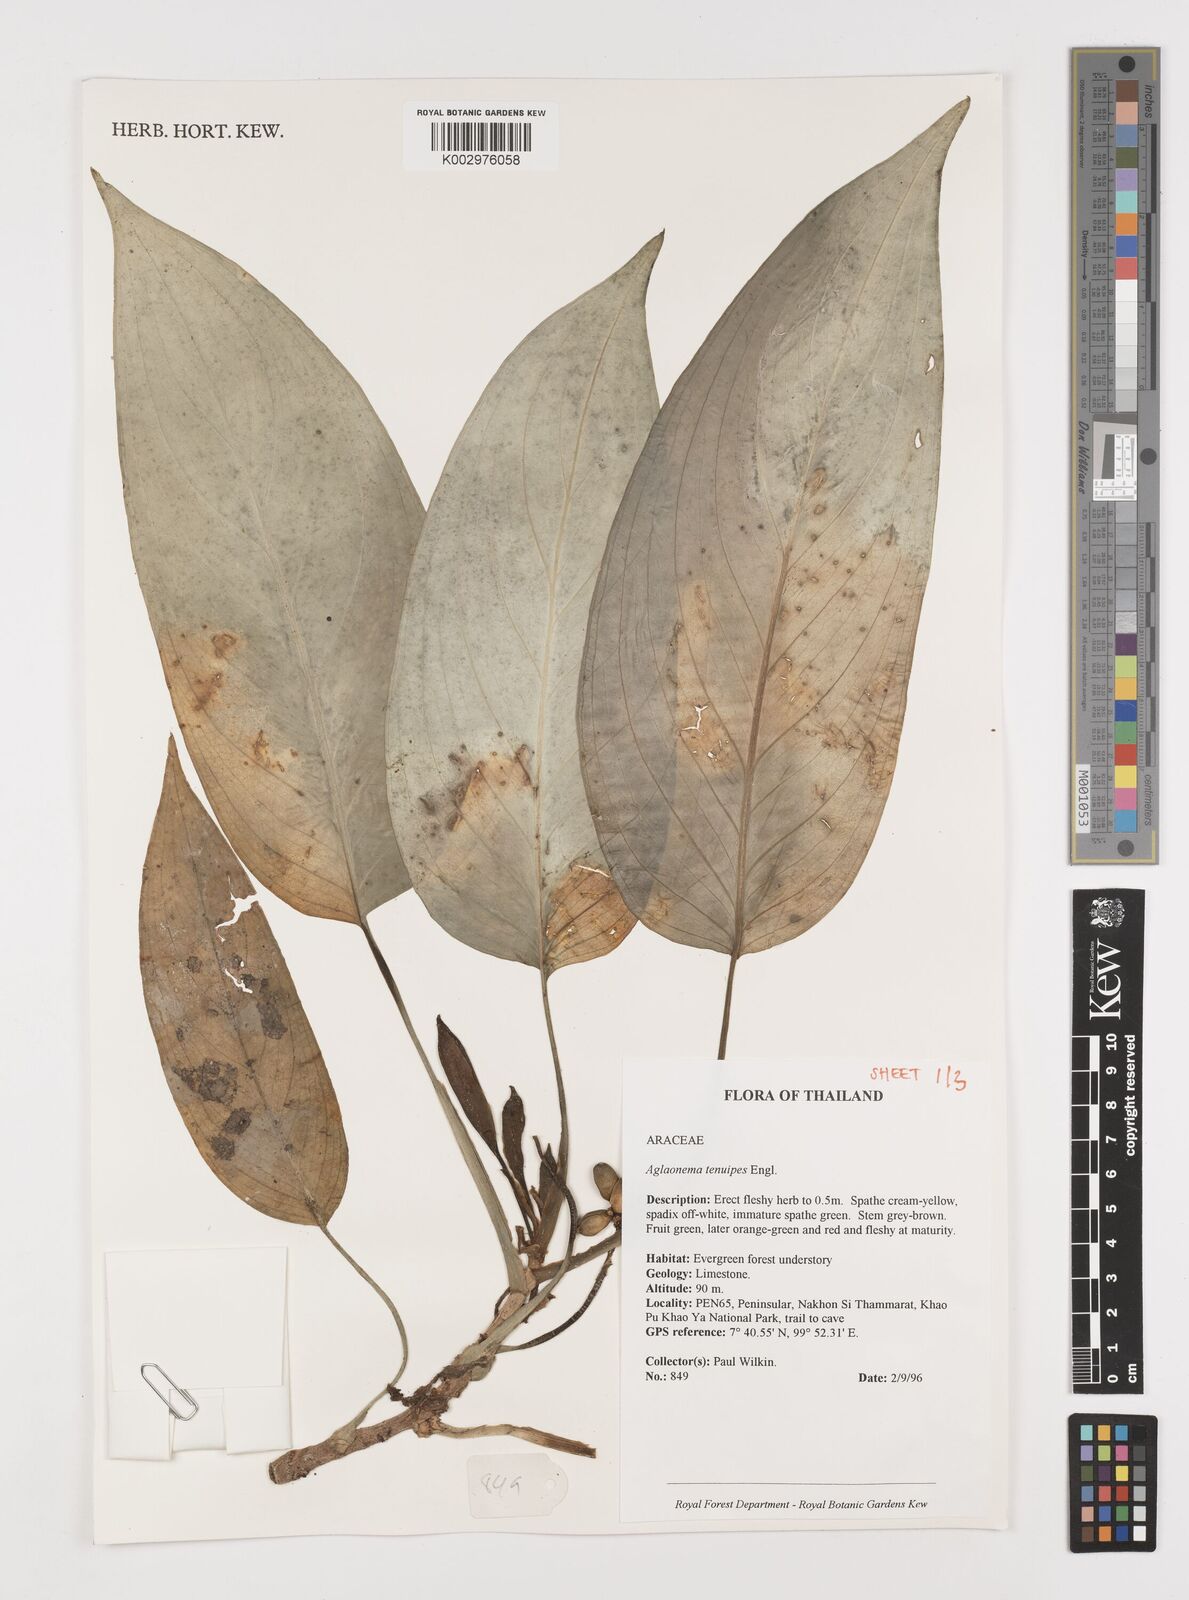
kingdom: Plantae
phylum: Tracheophyta
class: Liliopsida
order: Alismatales
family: Araceae
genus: Aglaonema
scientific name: Aglaonema simplex
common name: Malayan-sword
